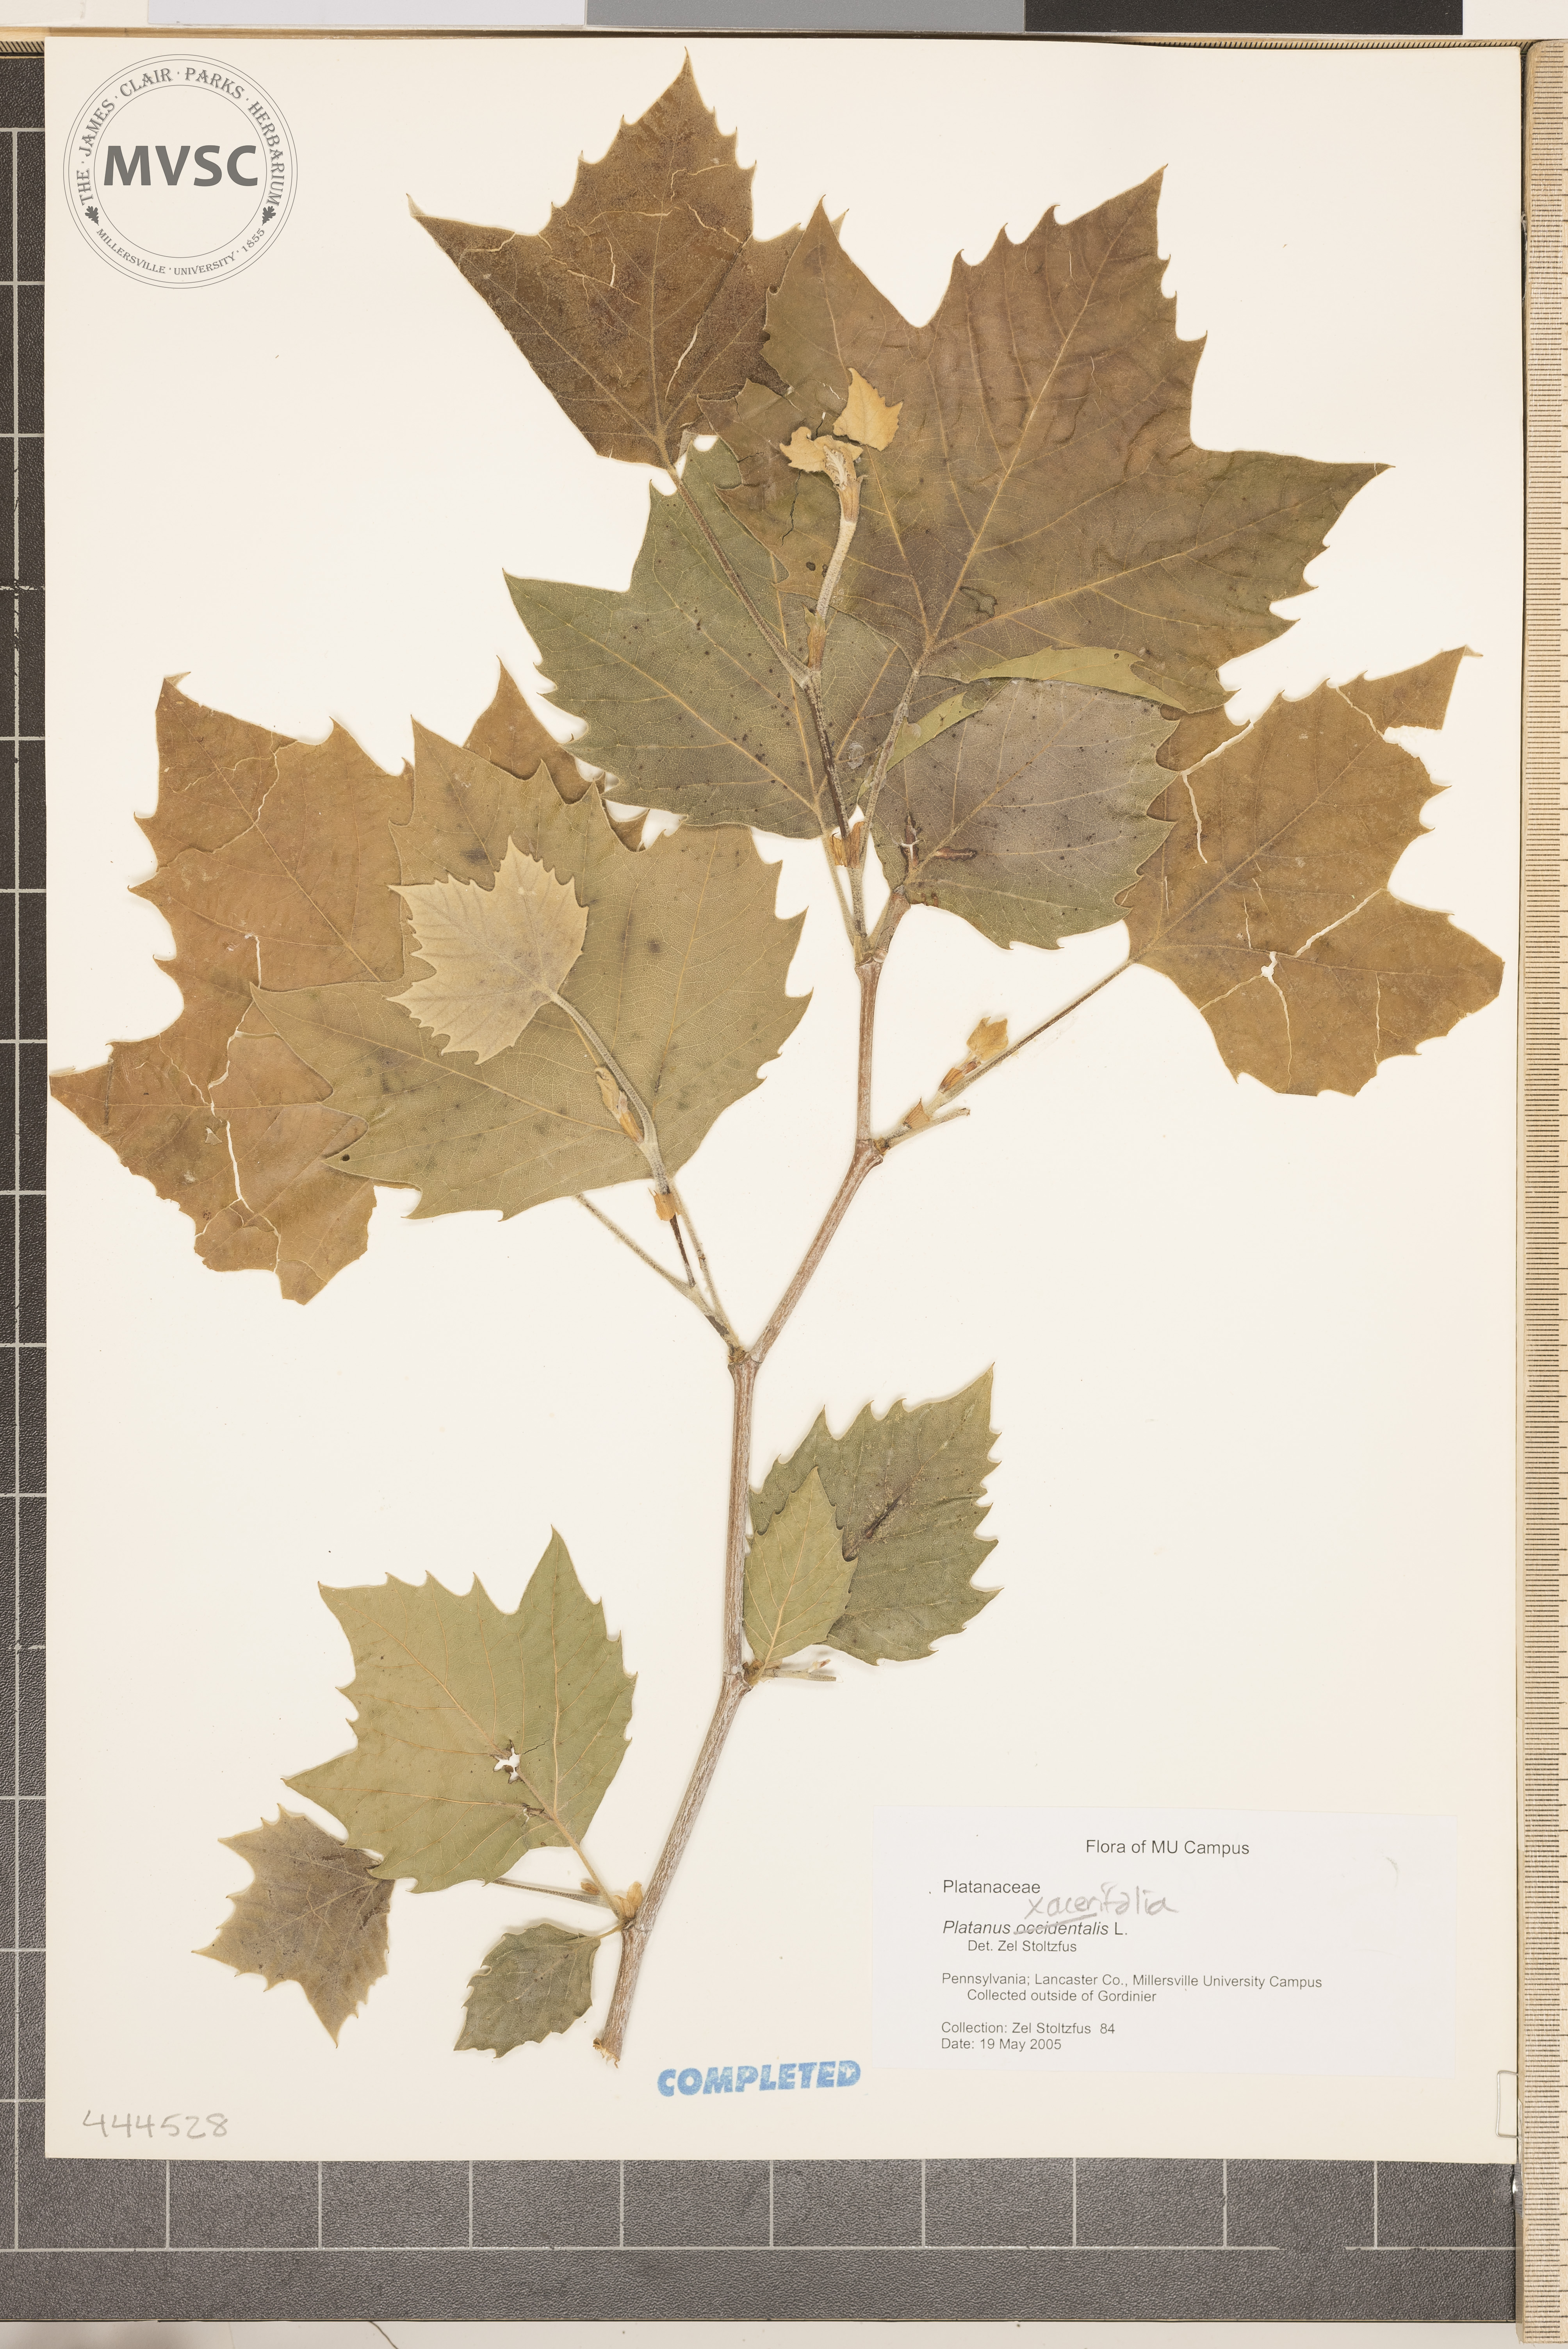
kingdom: Plantae
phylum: Tracheophyta
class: Magnoliopsida
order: Proteales
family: Platanaceae
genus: Platanus
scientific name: Platanus hispanica
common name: London plane
